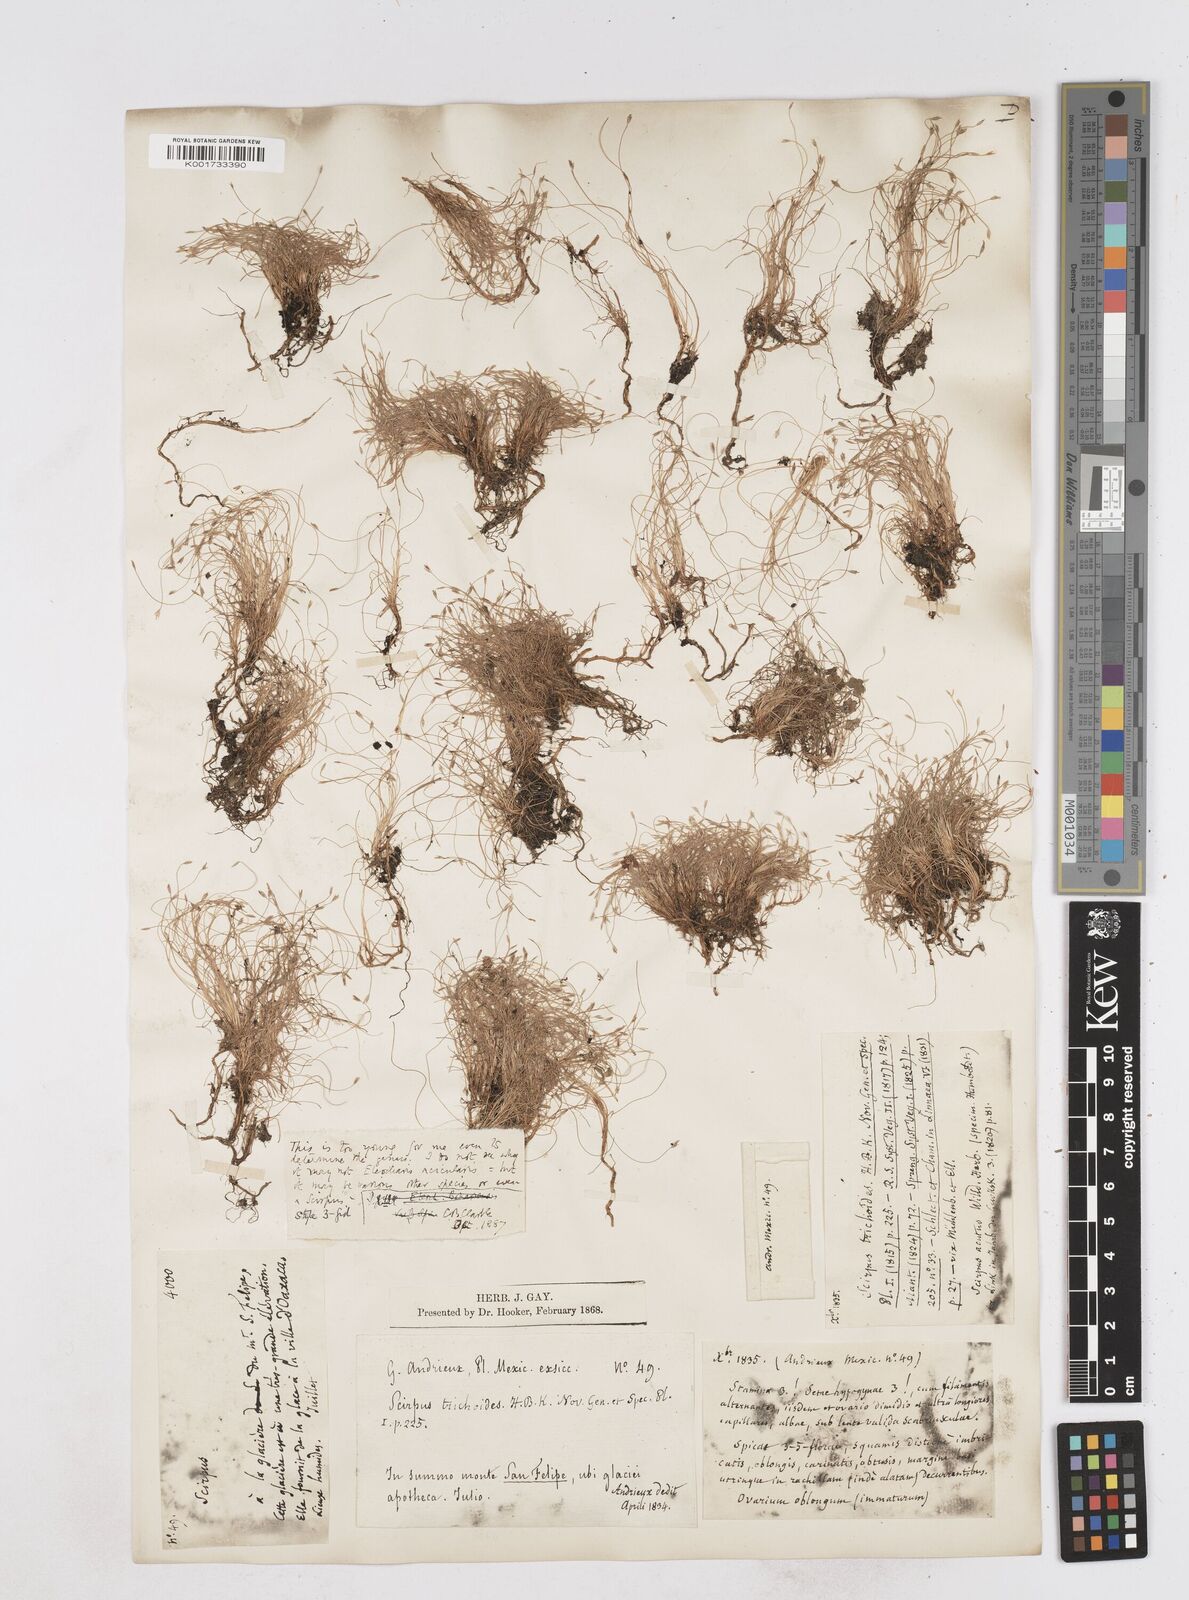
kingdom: Plantae
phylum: Tracheophyta
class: Liliopsida
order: Poales
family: Cyperaceae
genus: Eleocharis
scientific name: Eleocharis acicularis
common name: Needle spike-rush
